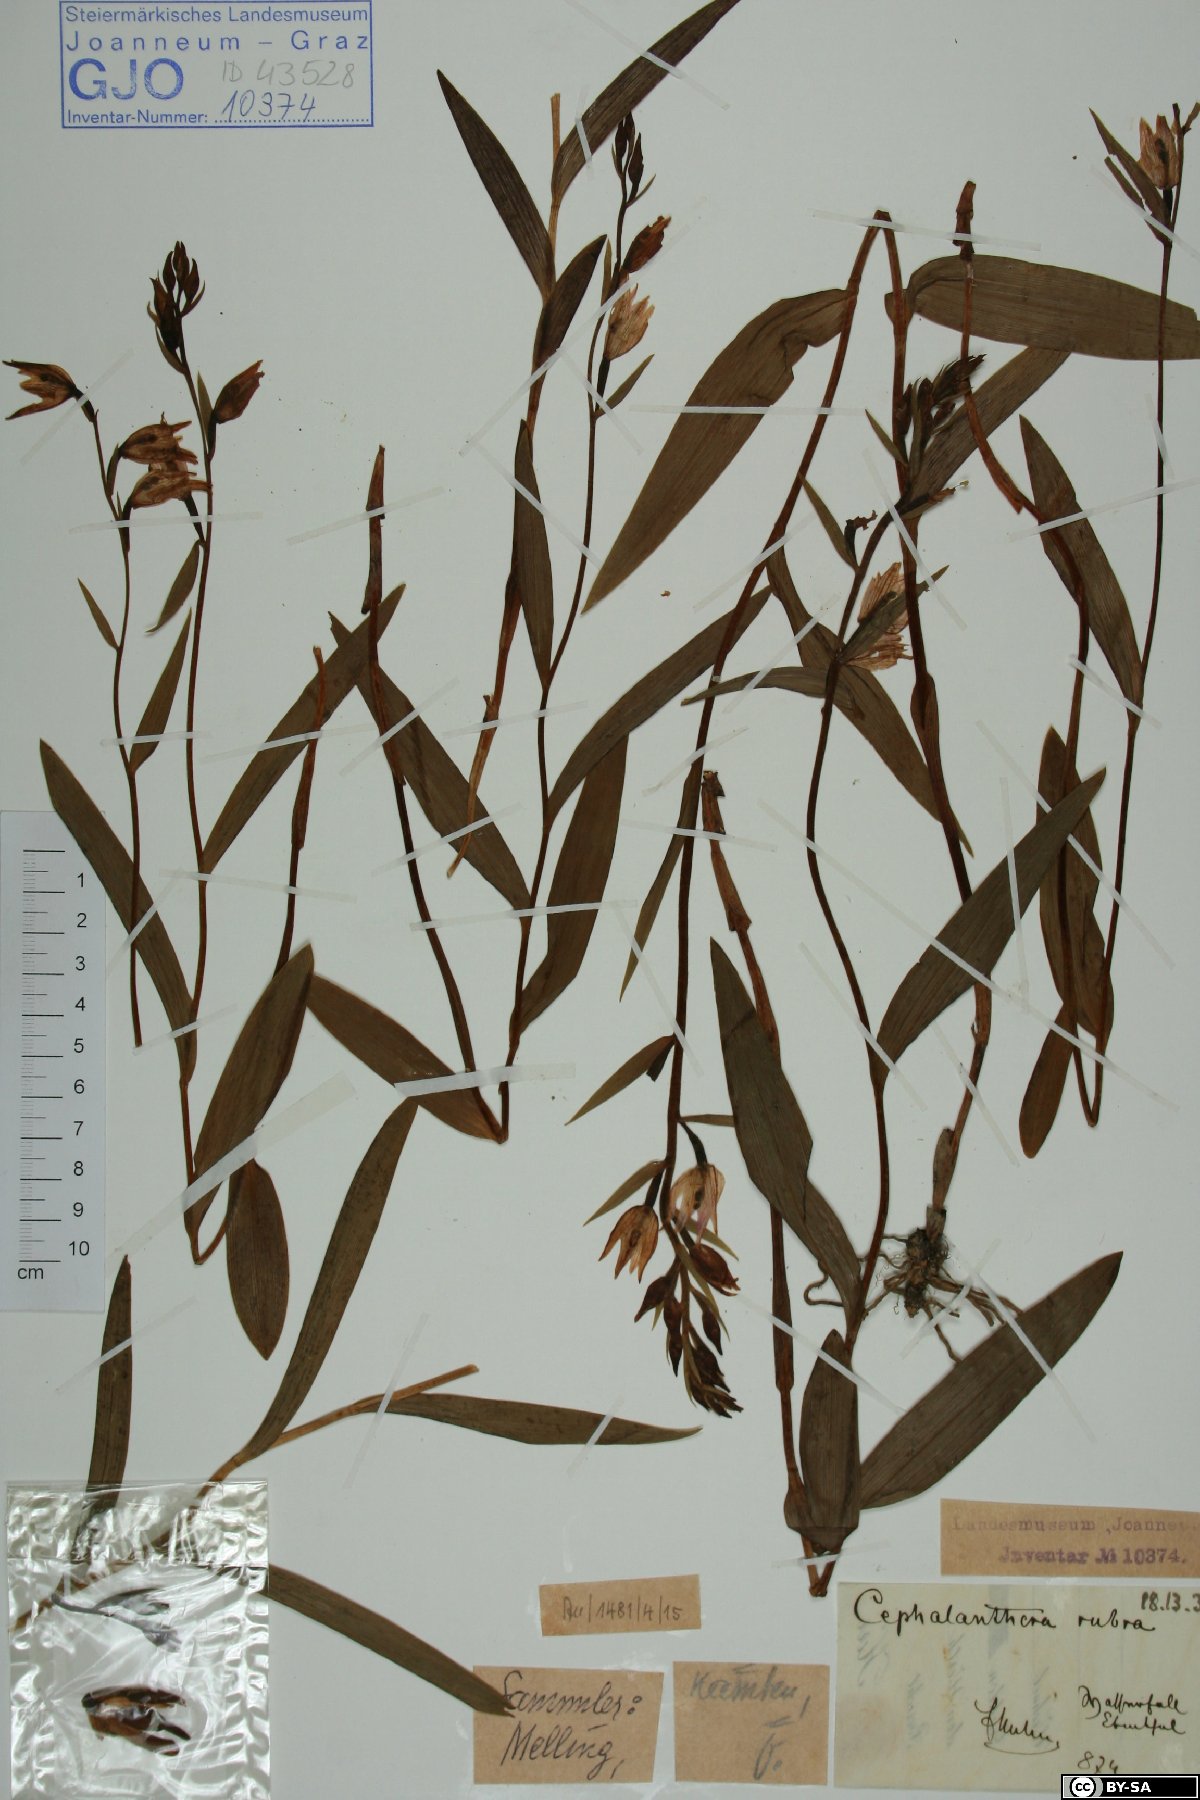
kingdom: Plantae
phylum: Tracheophyta
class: Liliopsida
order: Asparagales
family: Orchidaceae
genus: Cephalanthera
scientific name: Cephalanthera rubra
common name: Red helleborine
